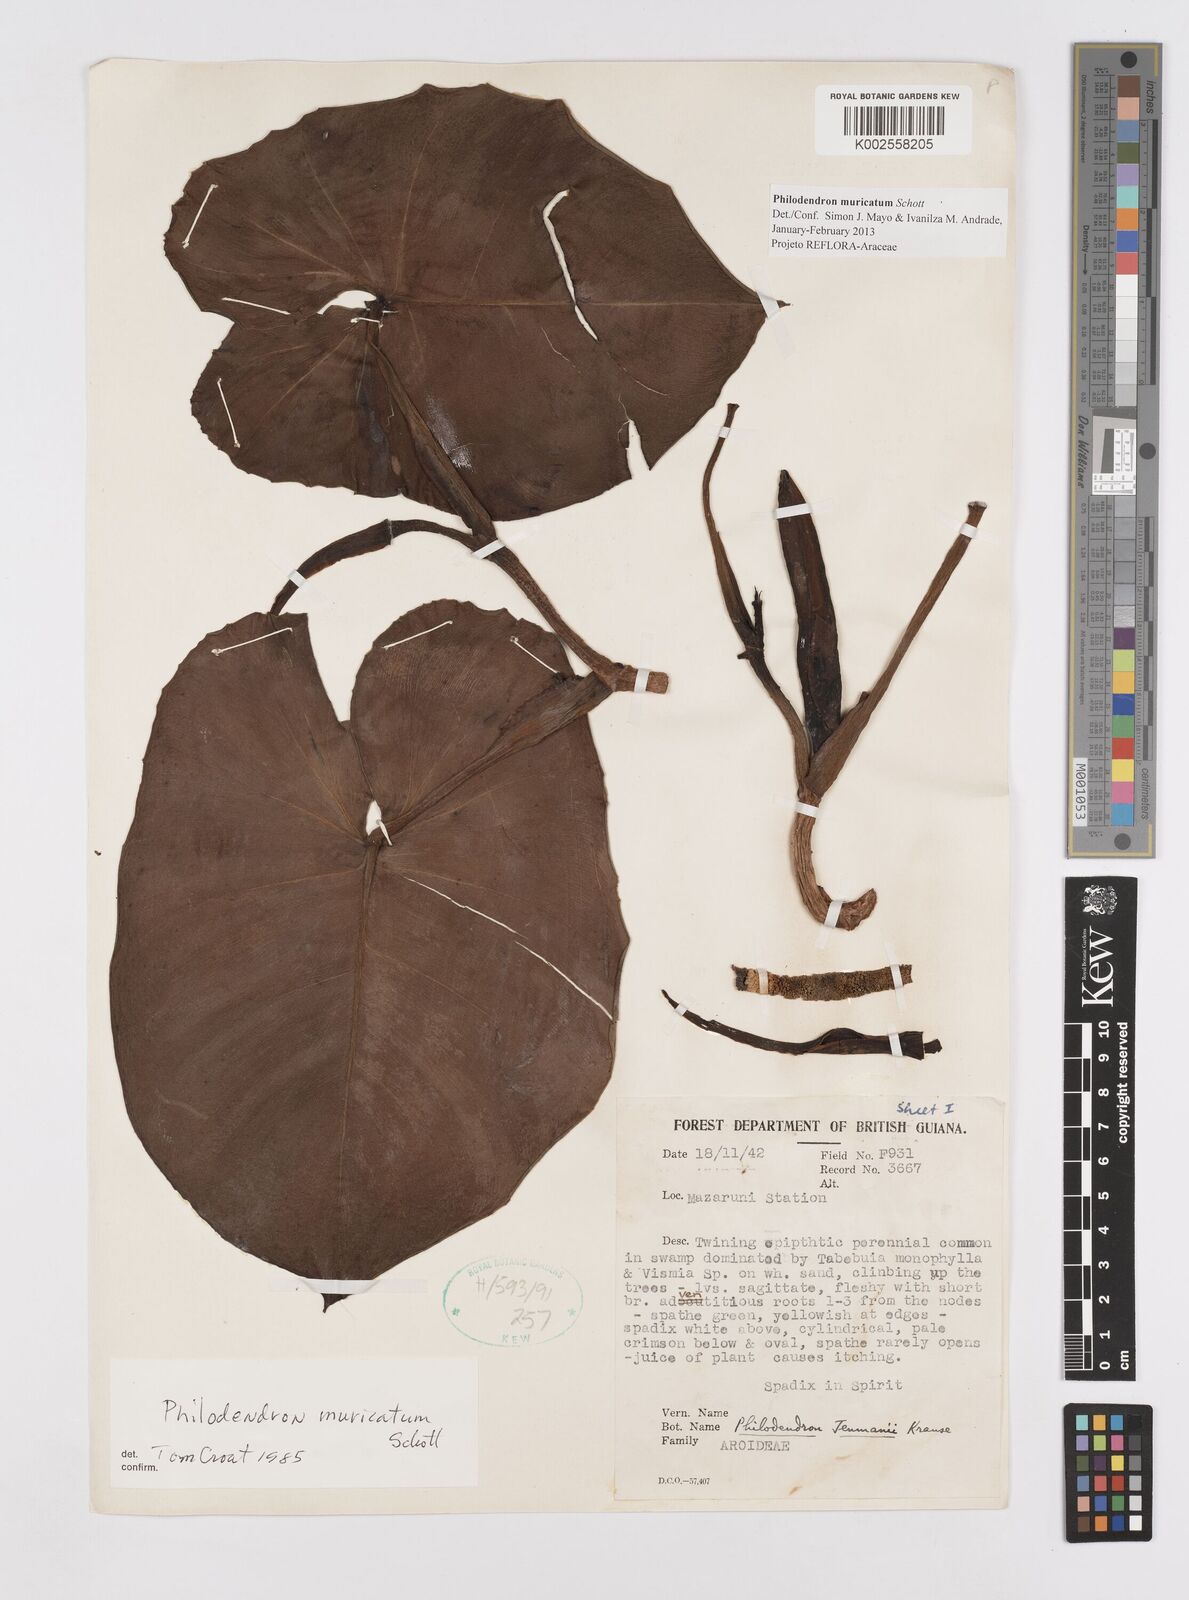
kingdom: Plantae
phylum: Tracheophyta
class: Liliopsida
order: Alismatales
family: Araceae
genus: Philodendron
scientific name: Philodendron muricatum
